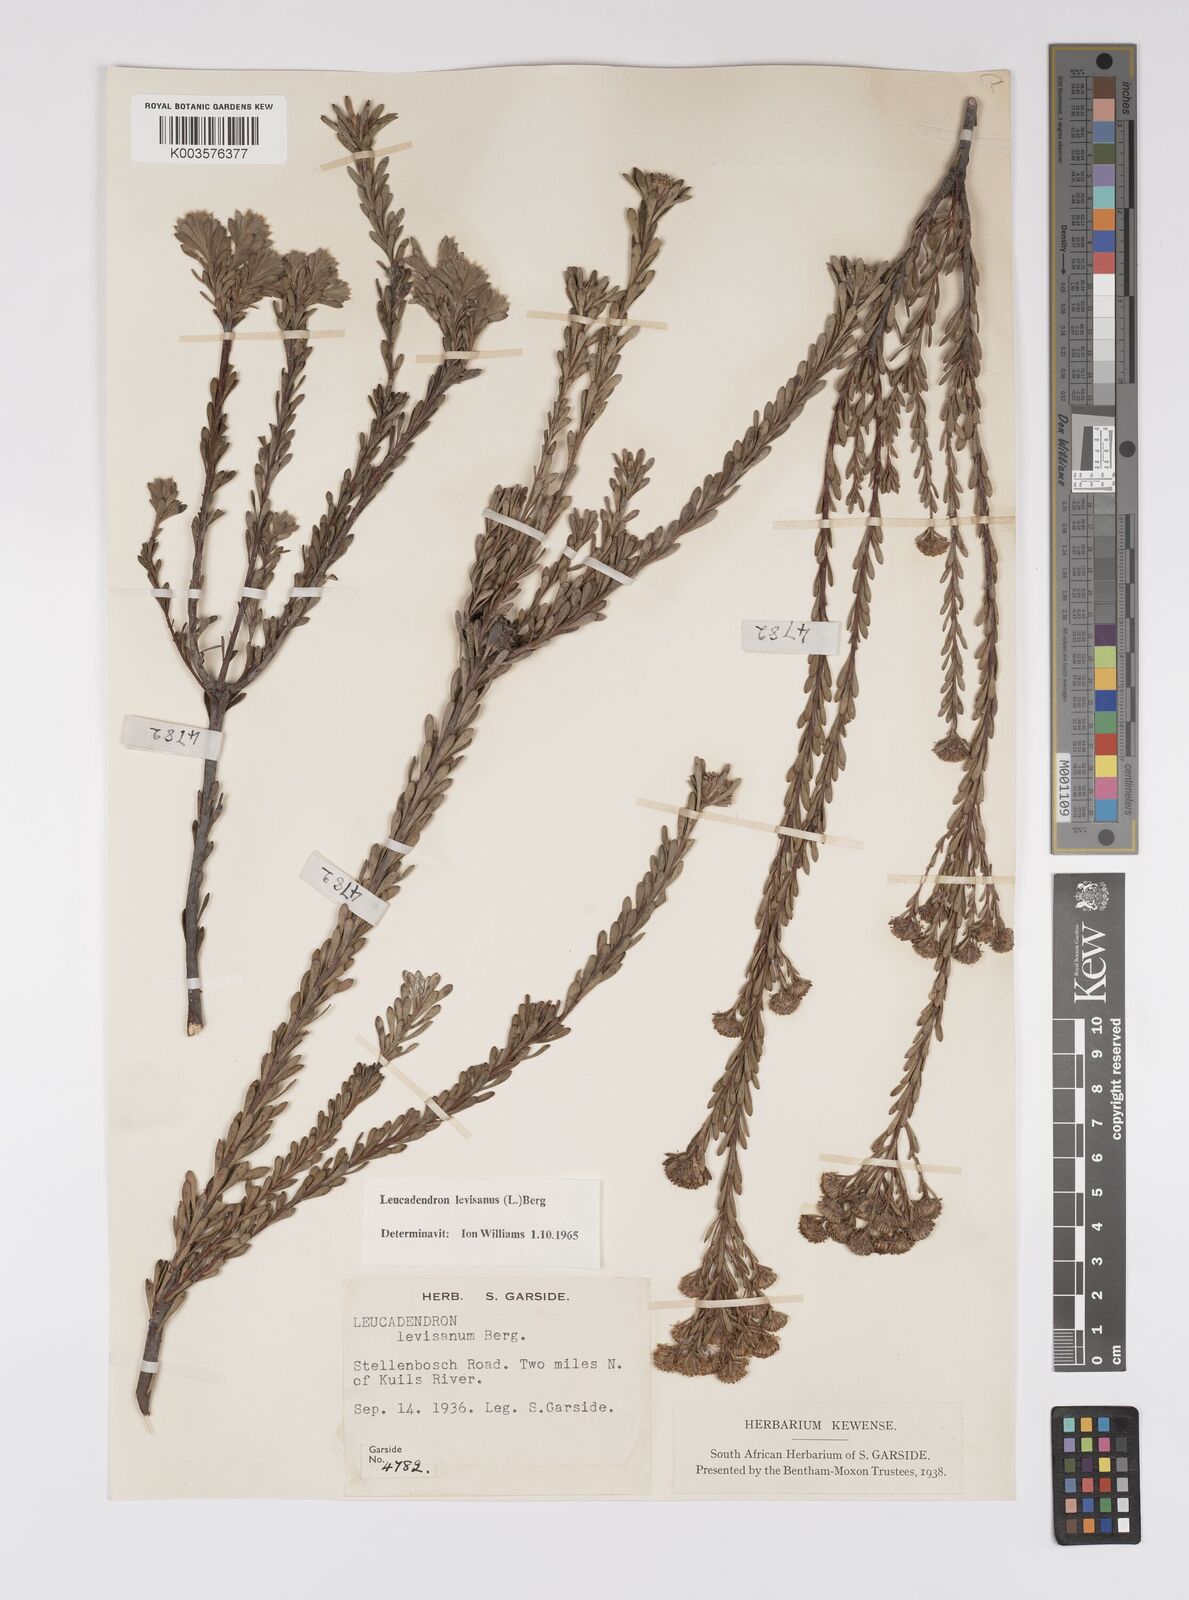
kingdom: Plantae
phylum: Tracheophyta
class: Magnoliopsida
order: Proteales
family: Proteaceae
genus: Leucadendron
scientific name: Leucadendron levisanus
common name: Cape flats conebush
